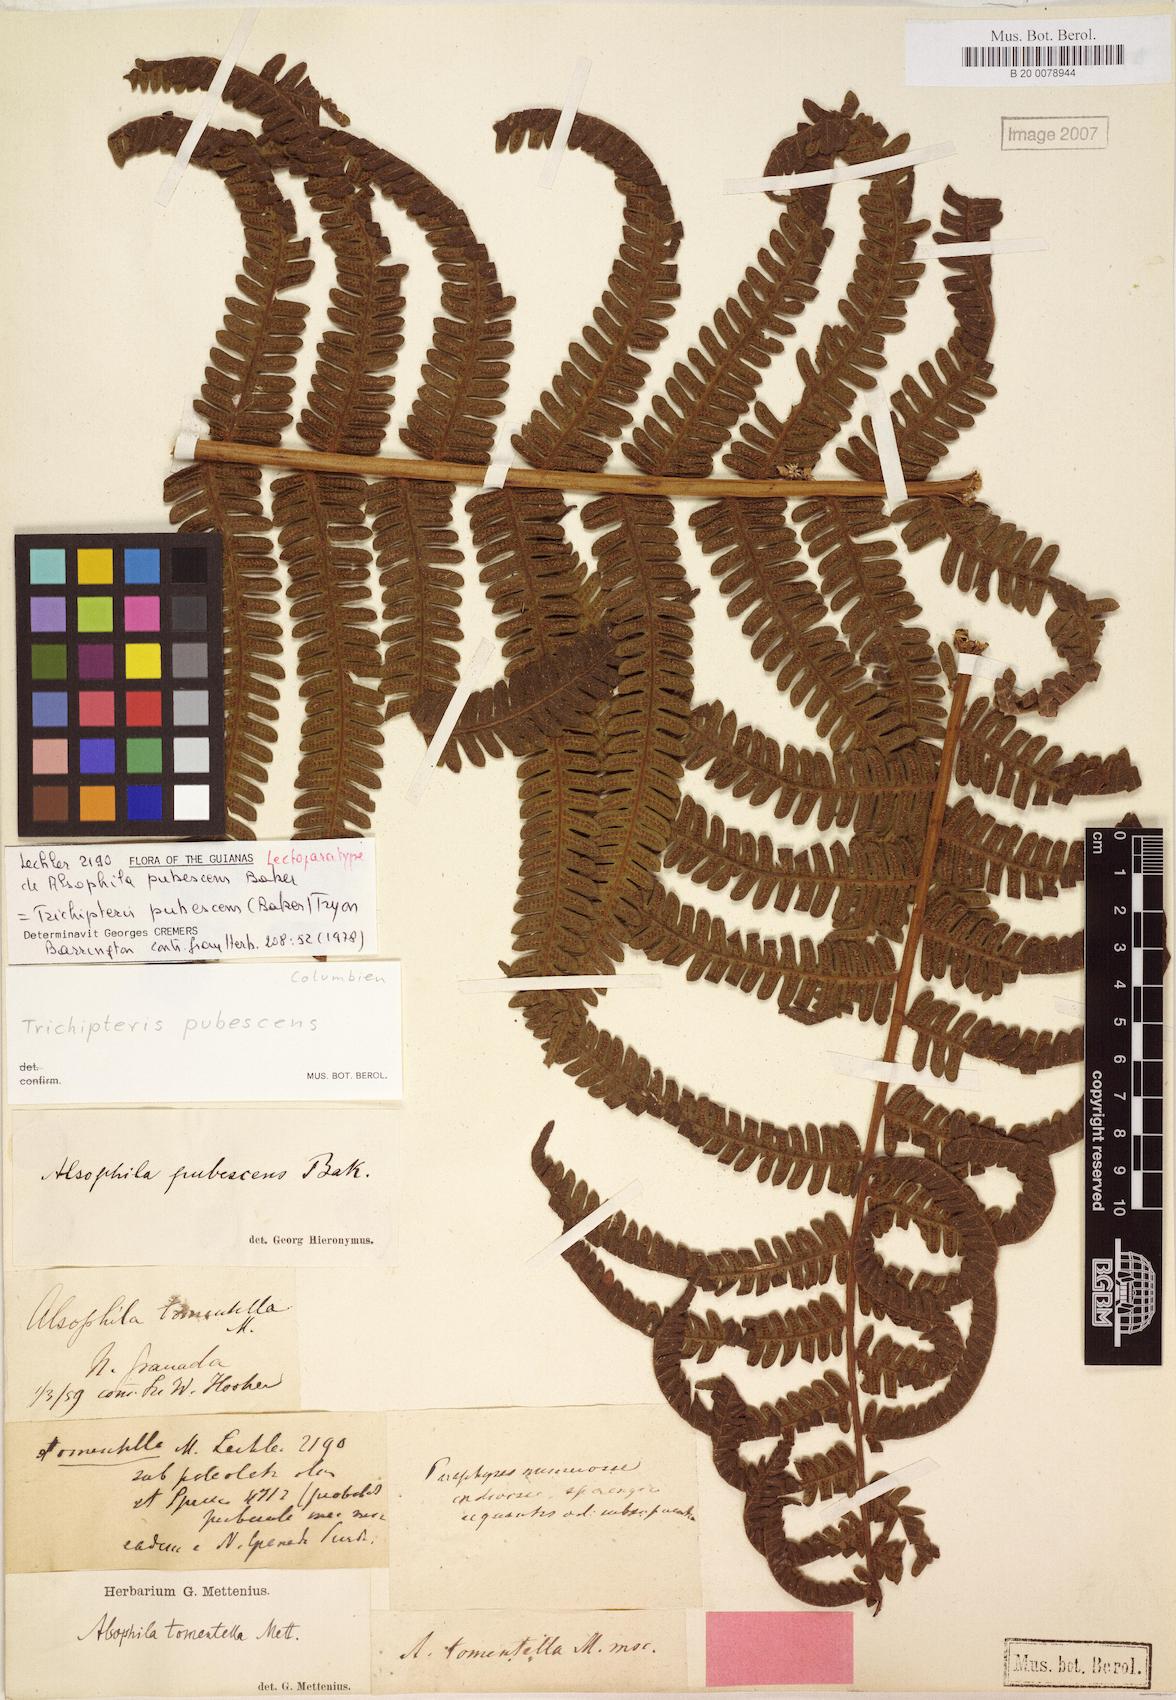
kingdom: Plantae
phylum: Tracheophyta
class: Polypodiopsida
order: Cyatheales
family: Cyatheaceae
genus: Cyathea
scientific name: Cyathea bipinnatifida
